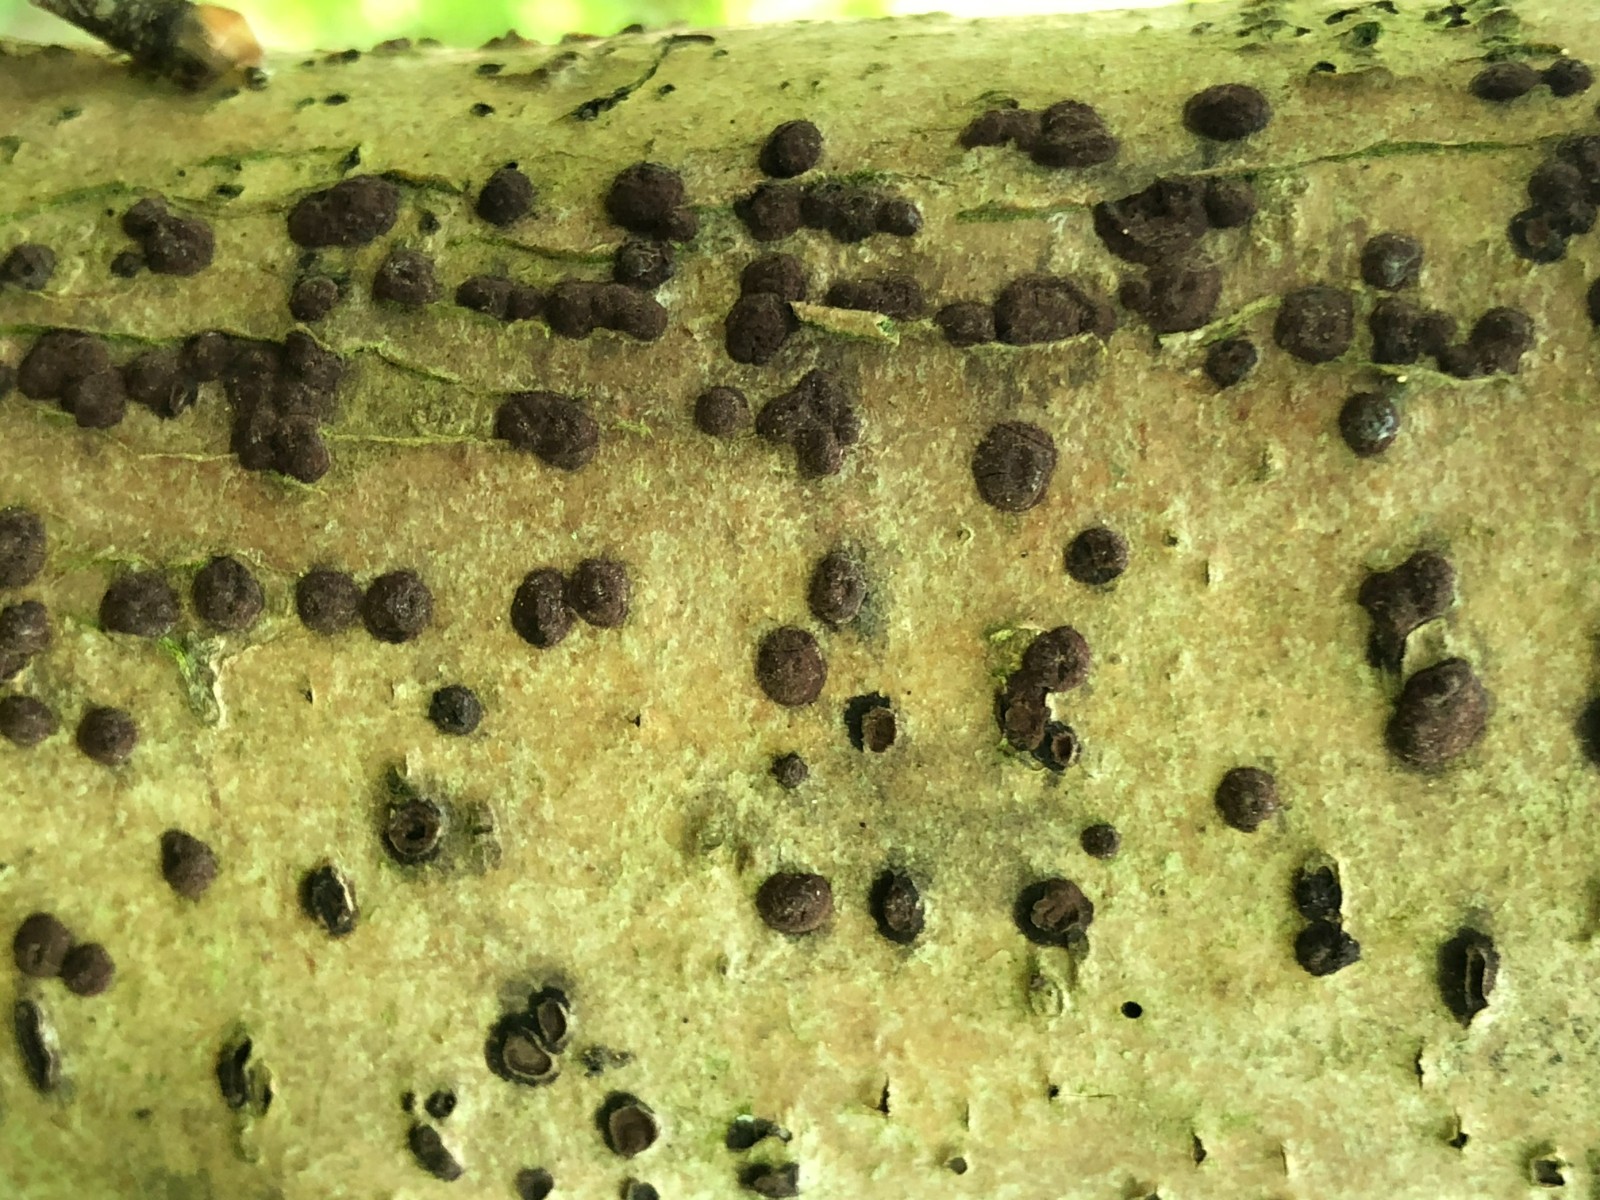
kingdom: Fungi
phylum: Ascomycota
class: Sordariomycetes
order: Xylariales
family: Hypoxylaceae
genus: Hypoxylon
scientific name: Hypoxylon fuscum
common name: kegleformet kulbær
